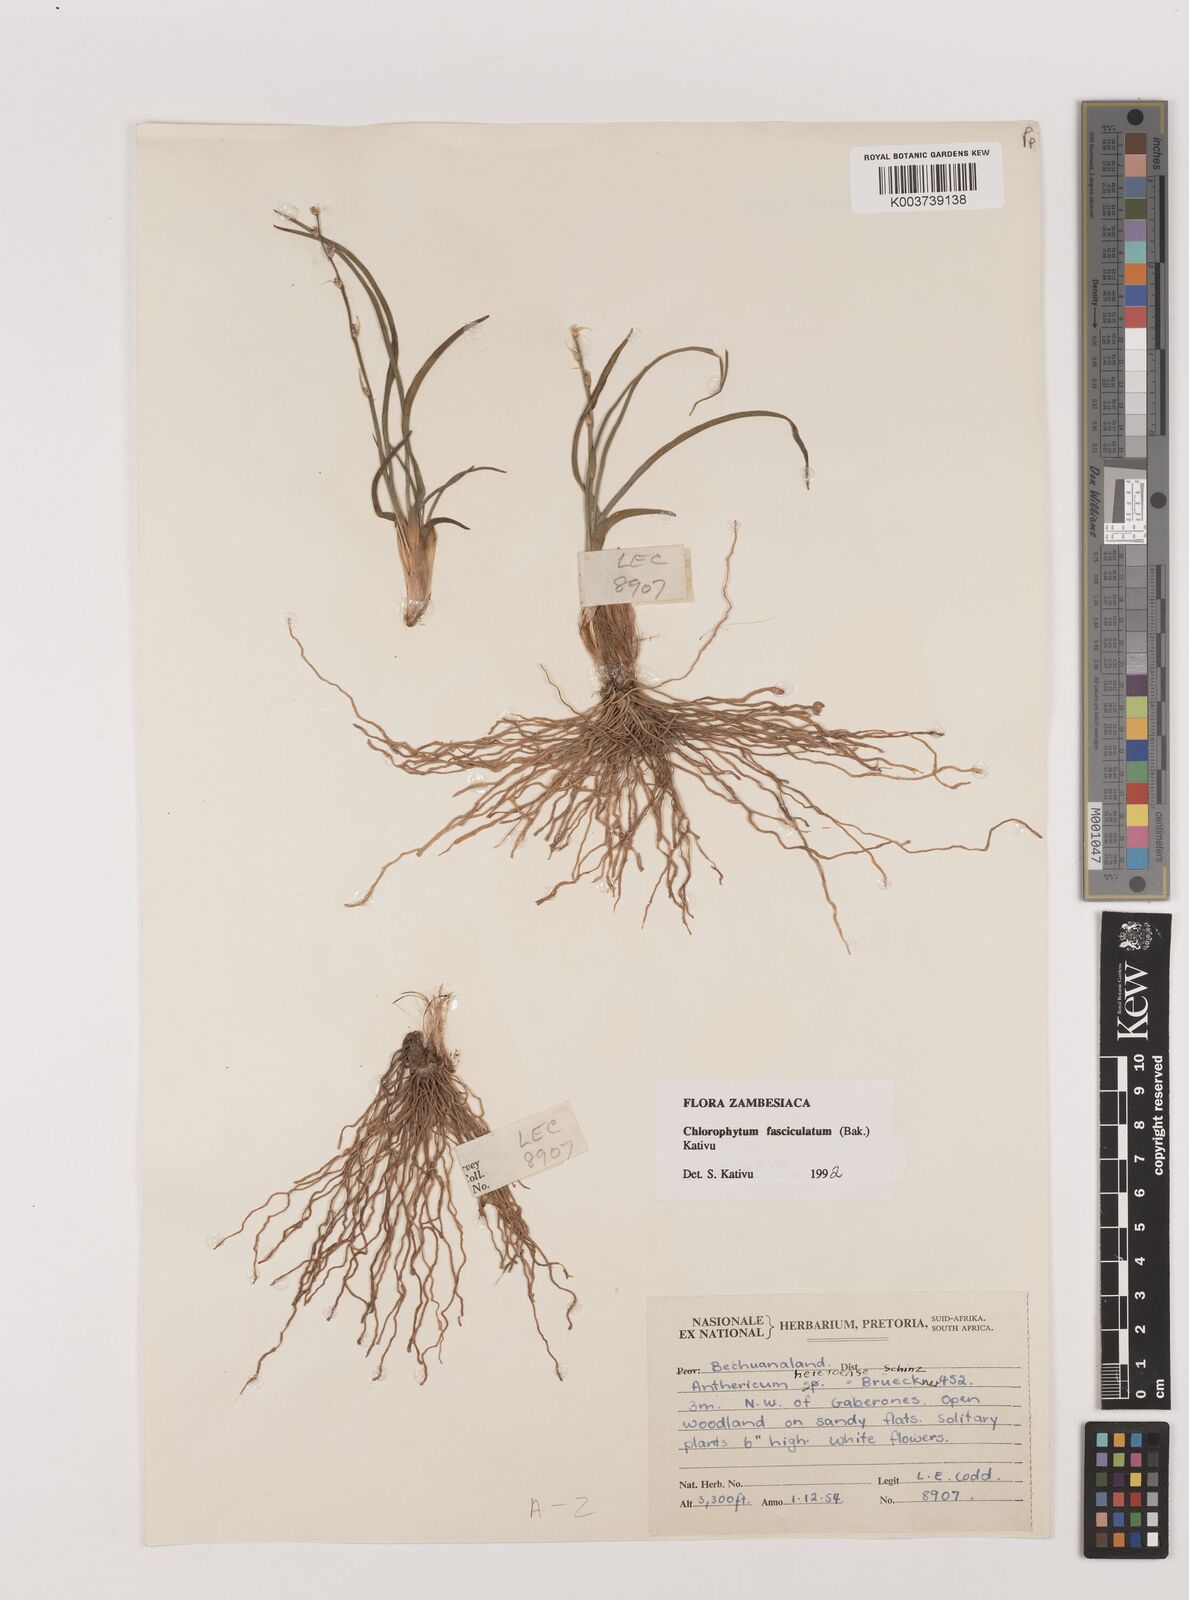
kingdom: Plantae
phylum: Tracheophyta
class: Liliopsida
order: Asparagales
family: Asparagaceae
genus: Chlorophytum
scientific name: Chlorophytum fasciculatum
